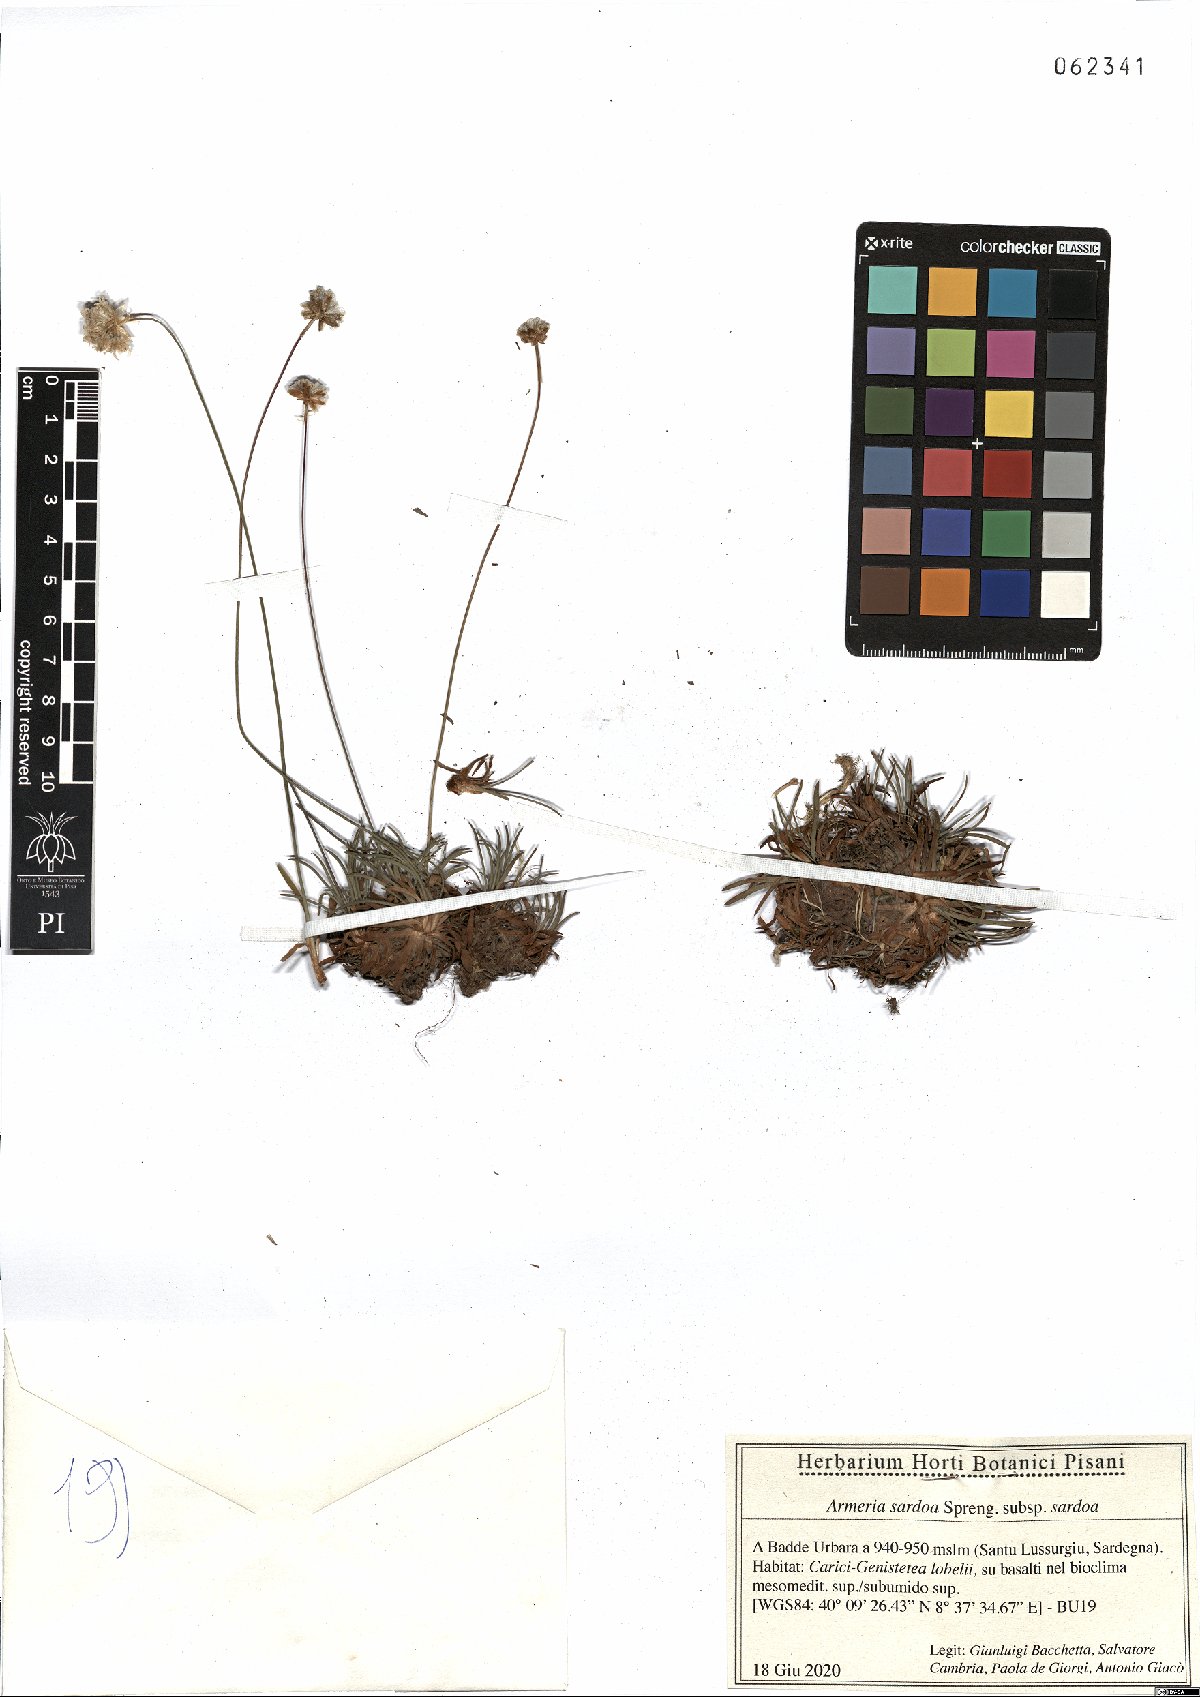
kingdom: Plantae
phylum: Tracheophyta
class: Magnoliopsida
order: Caryophyllales
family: Plumbaginaceae
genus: Armeria
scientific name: Armeria sardoa
